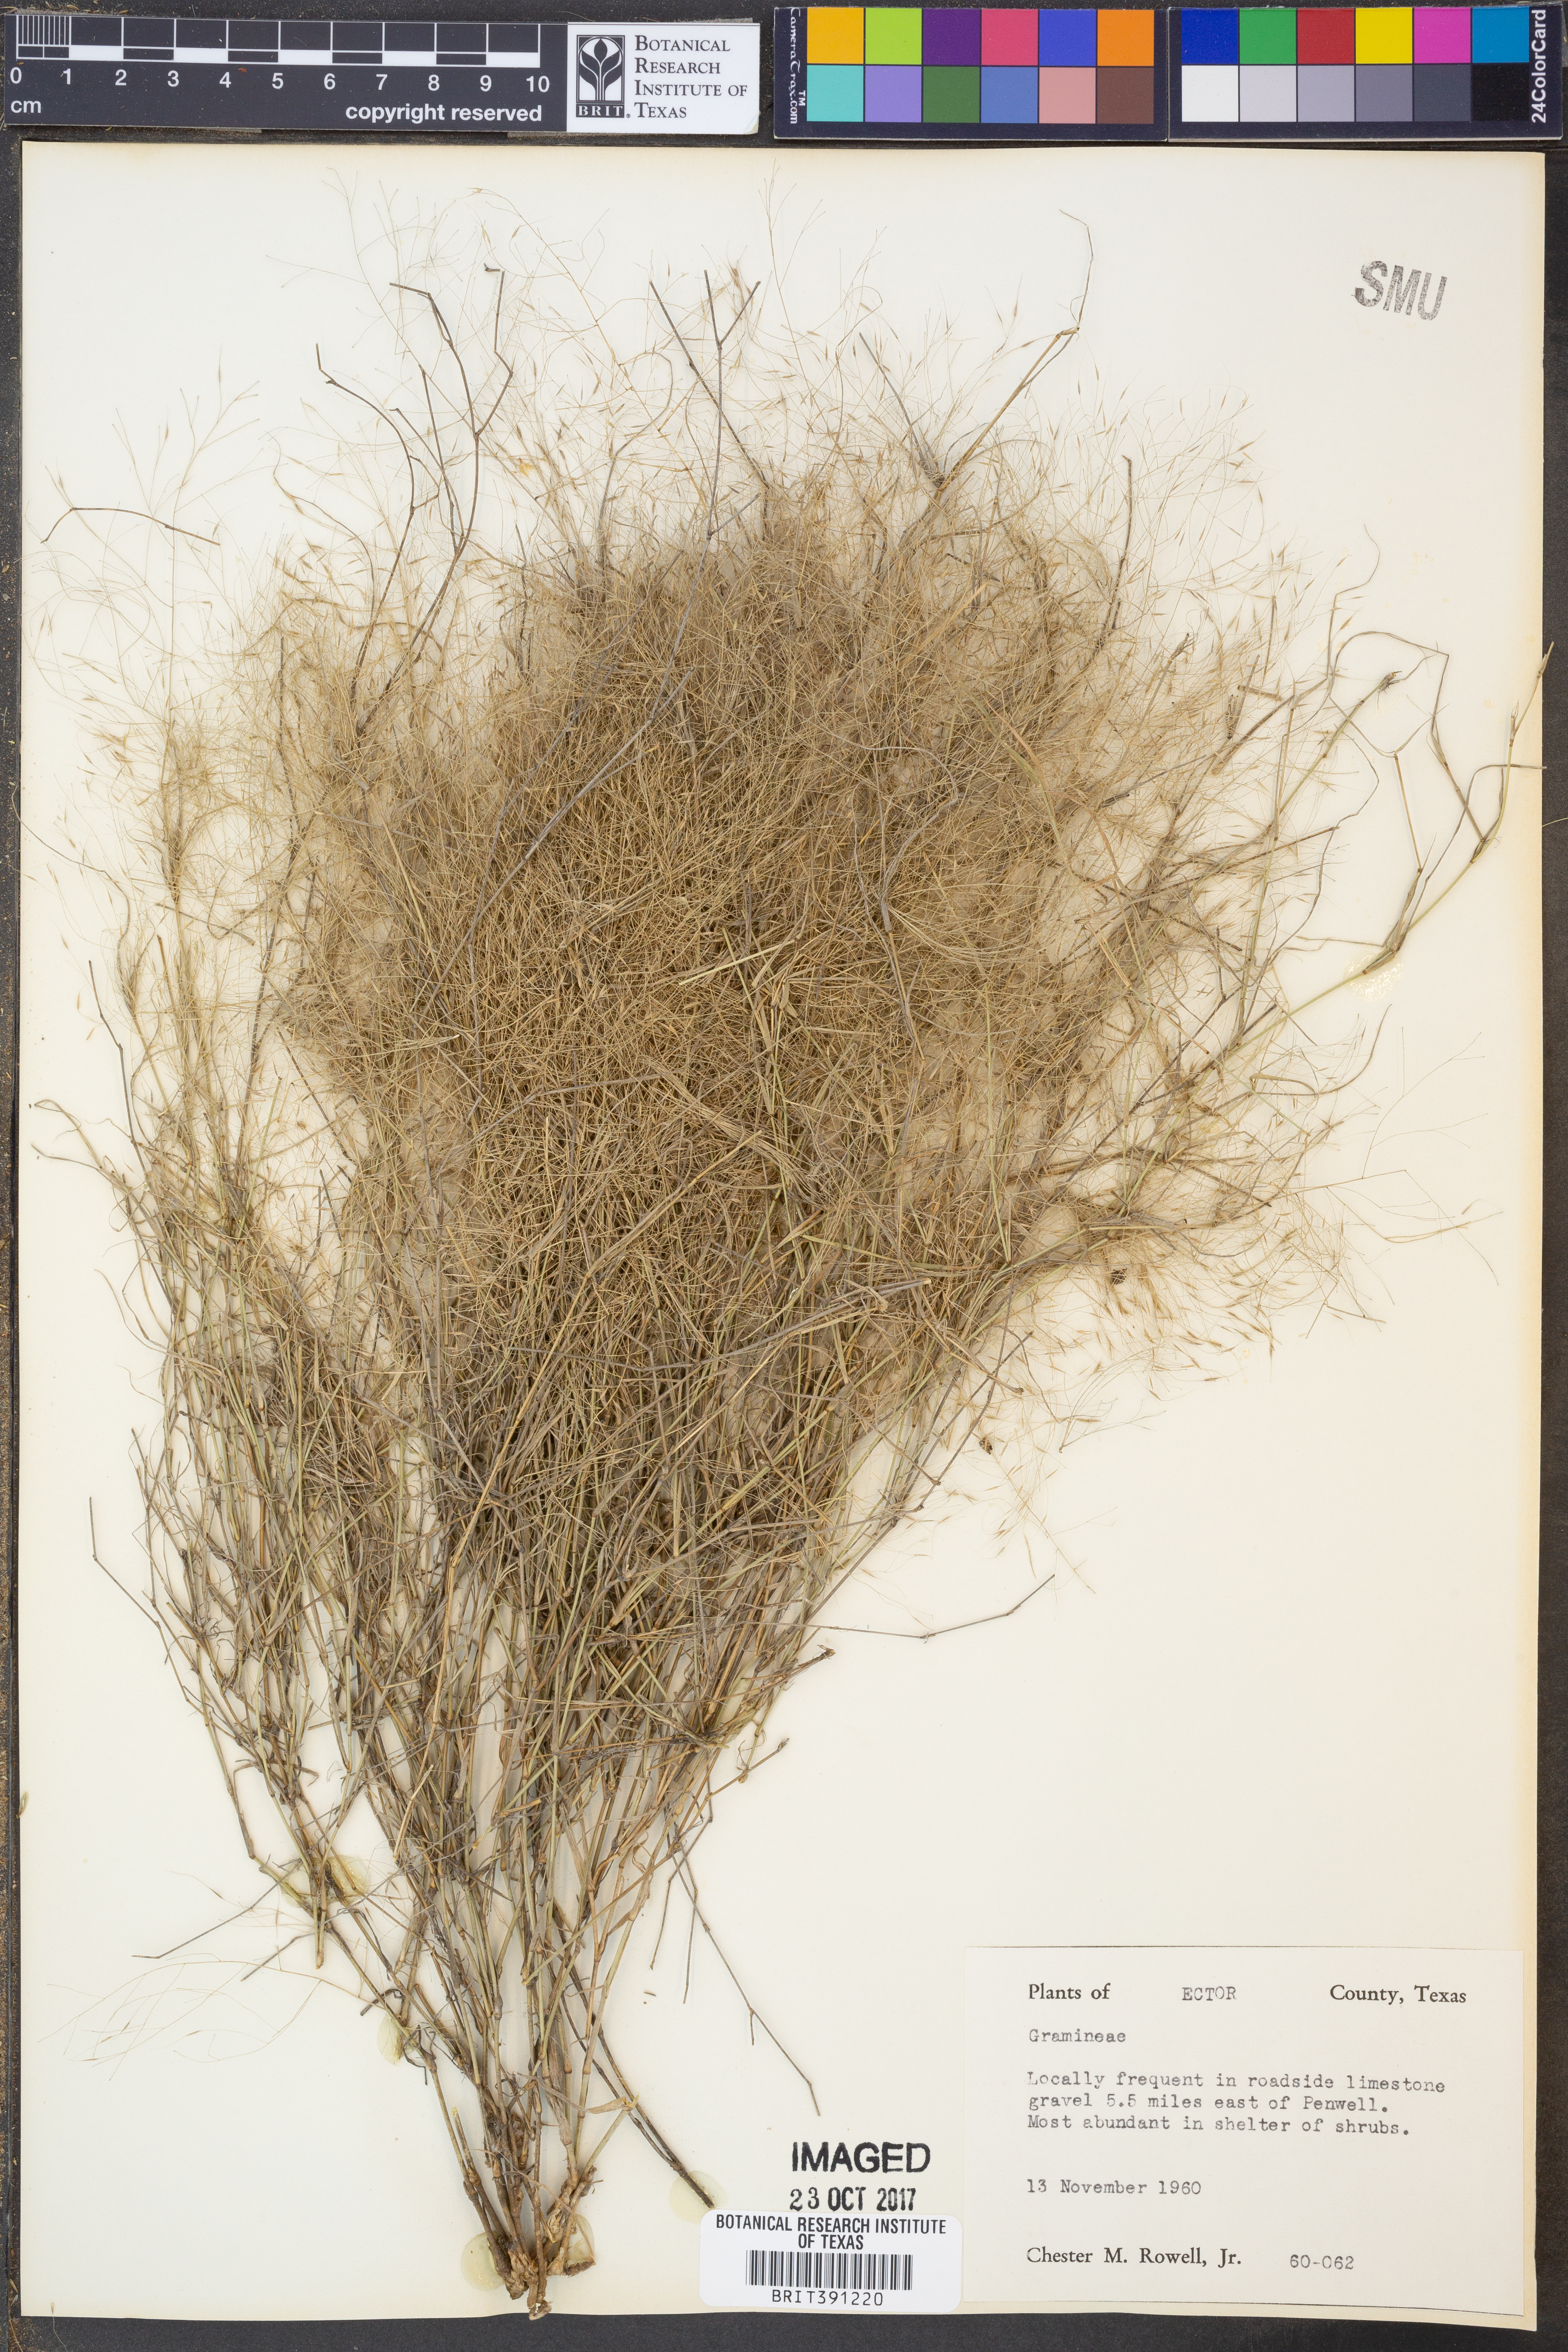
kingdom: Plantae
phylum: Tracheophyta
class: Liliopsida
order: Poales
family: Poaceae
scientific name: Poaceae
